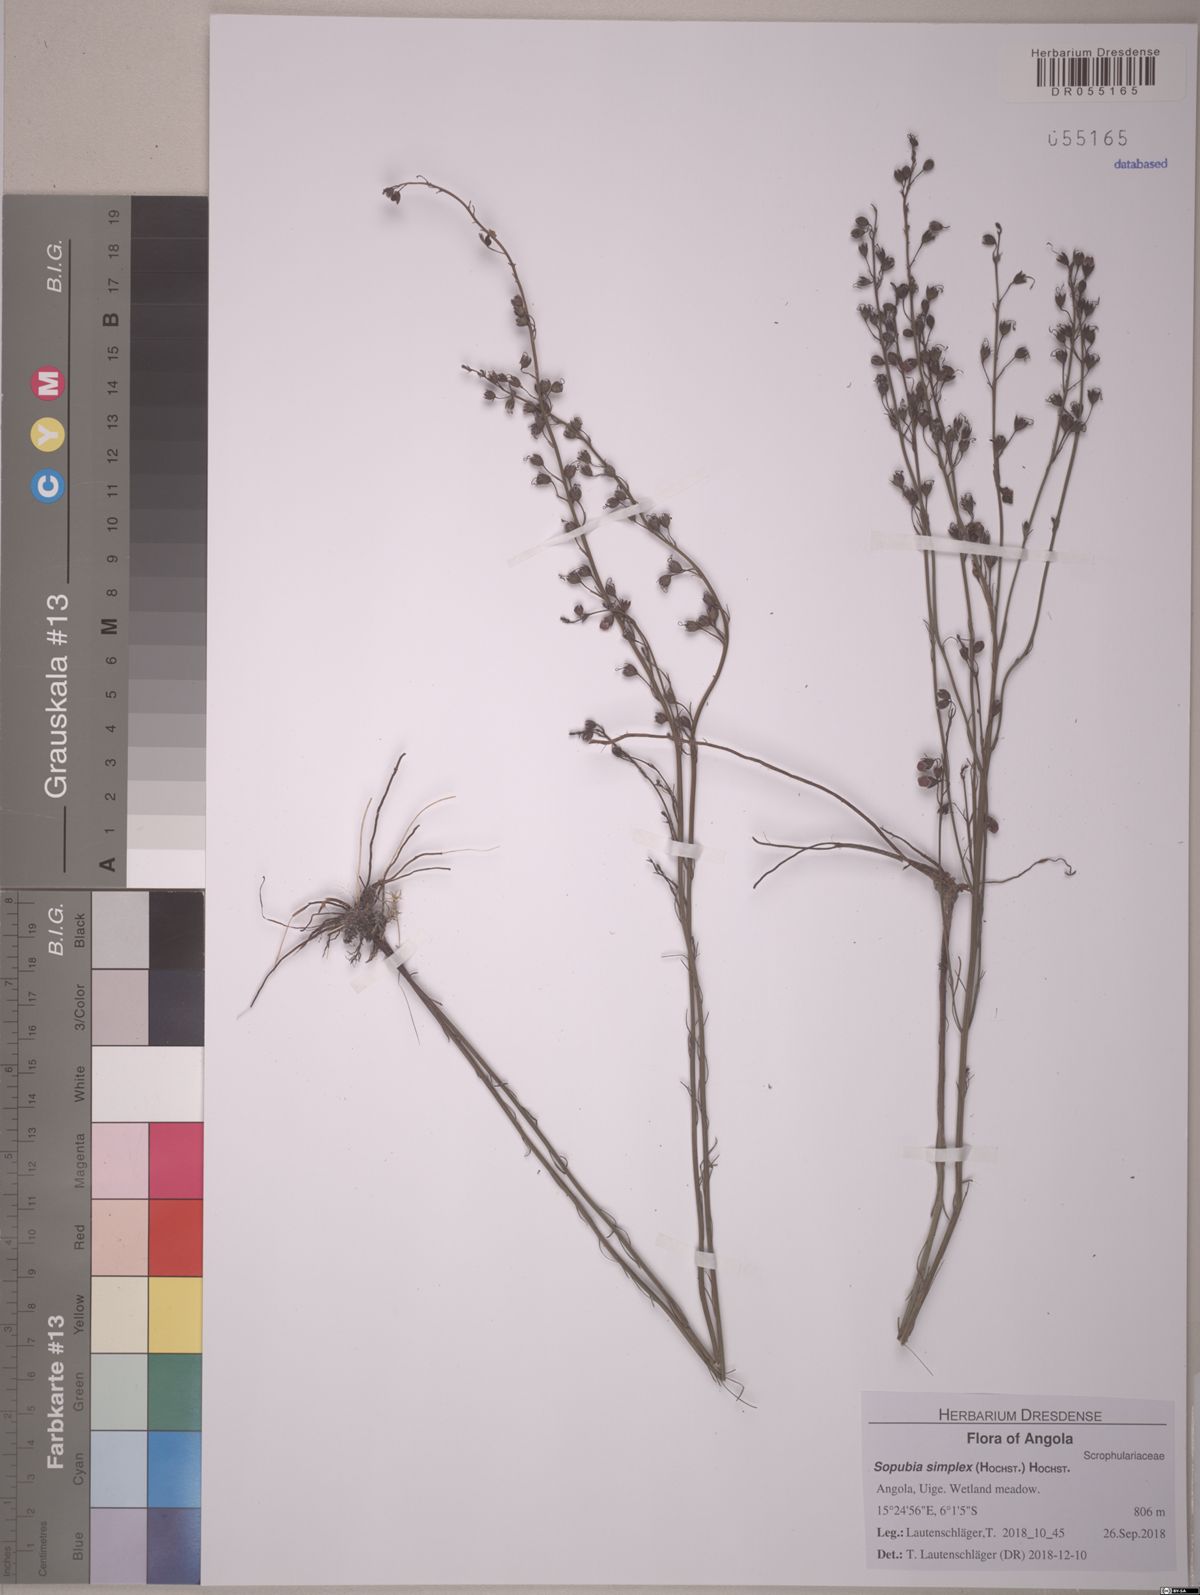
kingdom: Plantae
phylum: Tracheophyta
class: Magnoliopsida
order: Lamiales
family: Orobanchaceae
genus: Sopubia
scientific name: Sopubia simplex
